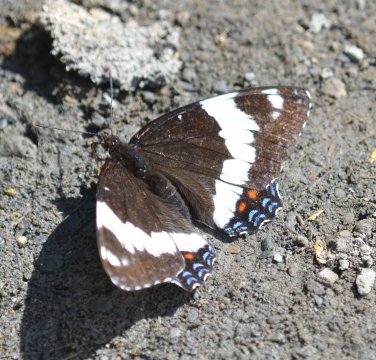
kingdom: Animalia
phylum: Arthropoda
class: Insecta
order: Lepidoptera
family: Nymphalidae
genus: Limenitis
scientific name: Limenitis arthemis
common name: Red-spotted Admiral
